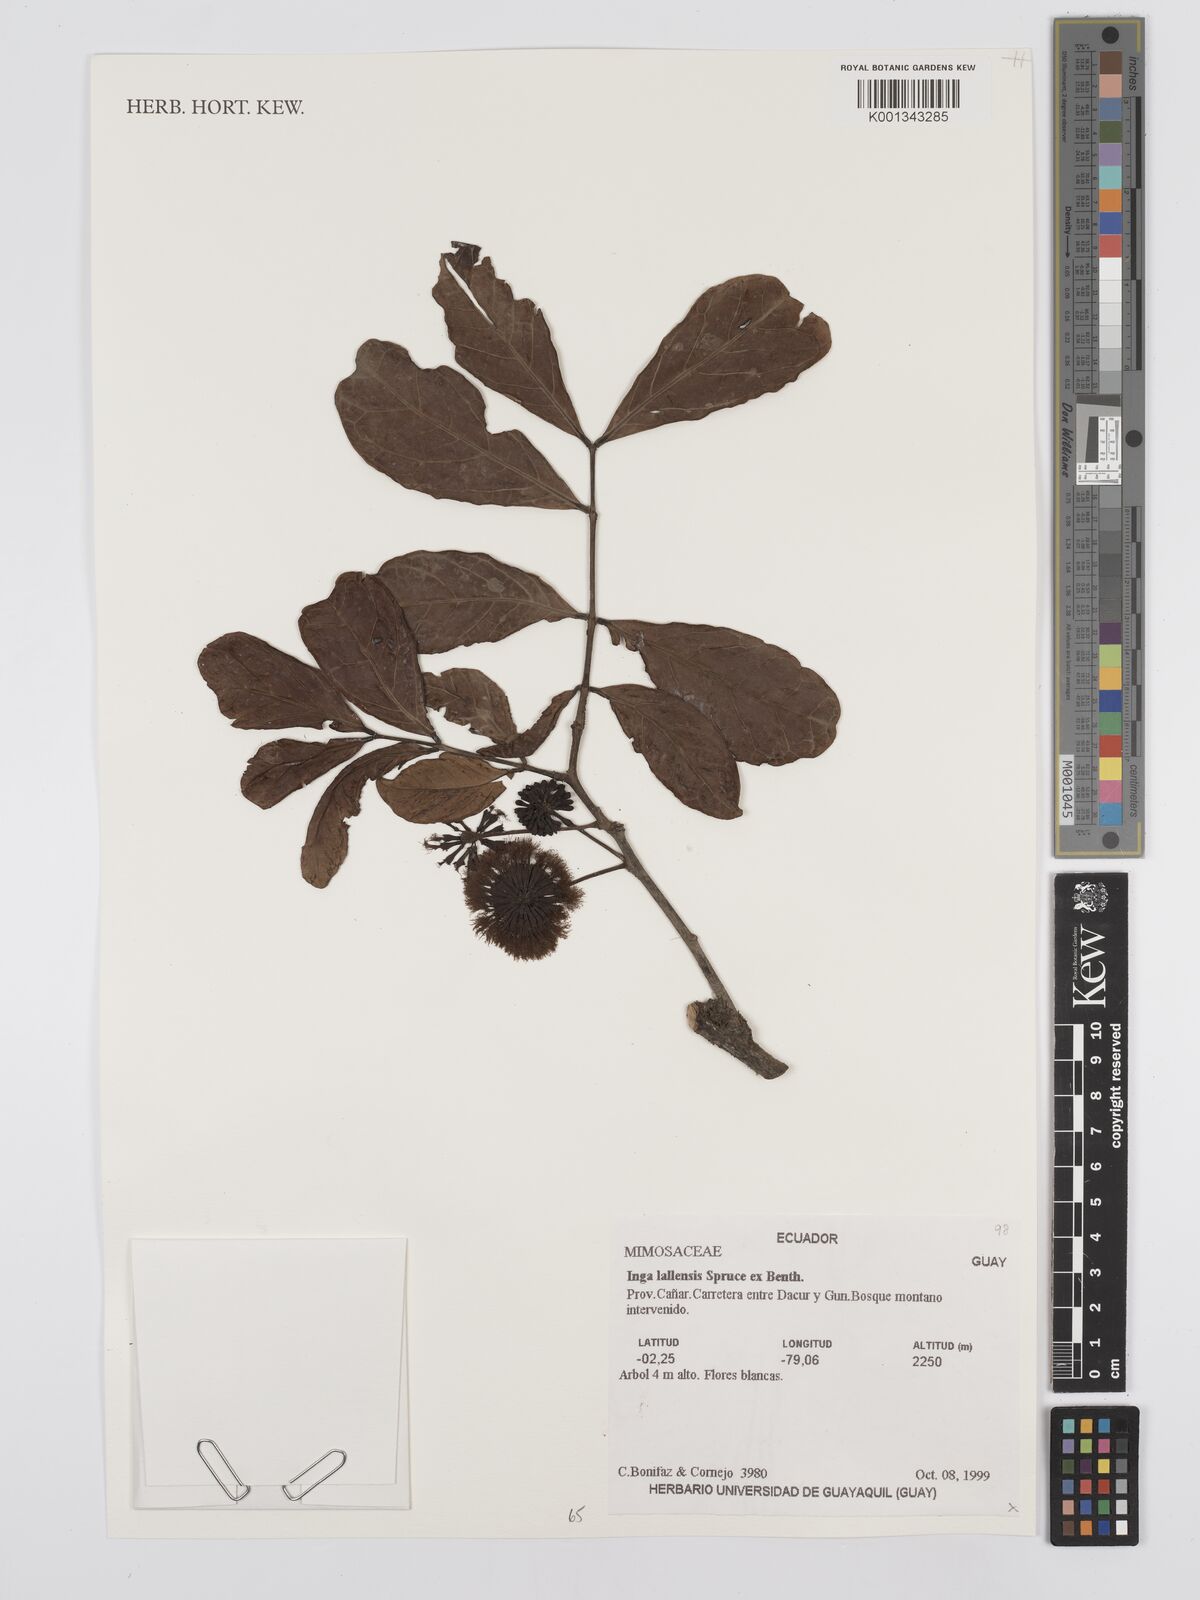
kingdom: Plantae
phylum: Tracheophyta
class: Magnoliopsida
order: Fabales
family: Fabaceae
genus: Inga
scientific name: Inga lallensis
